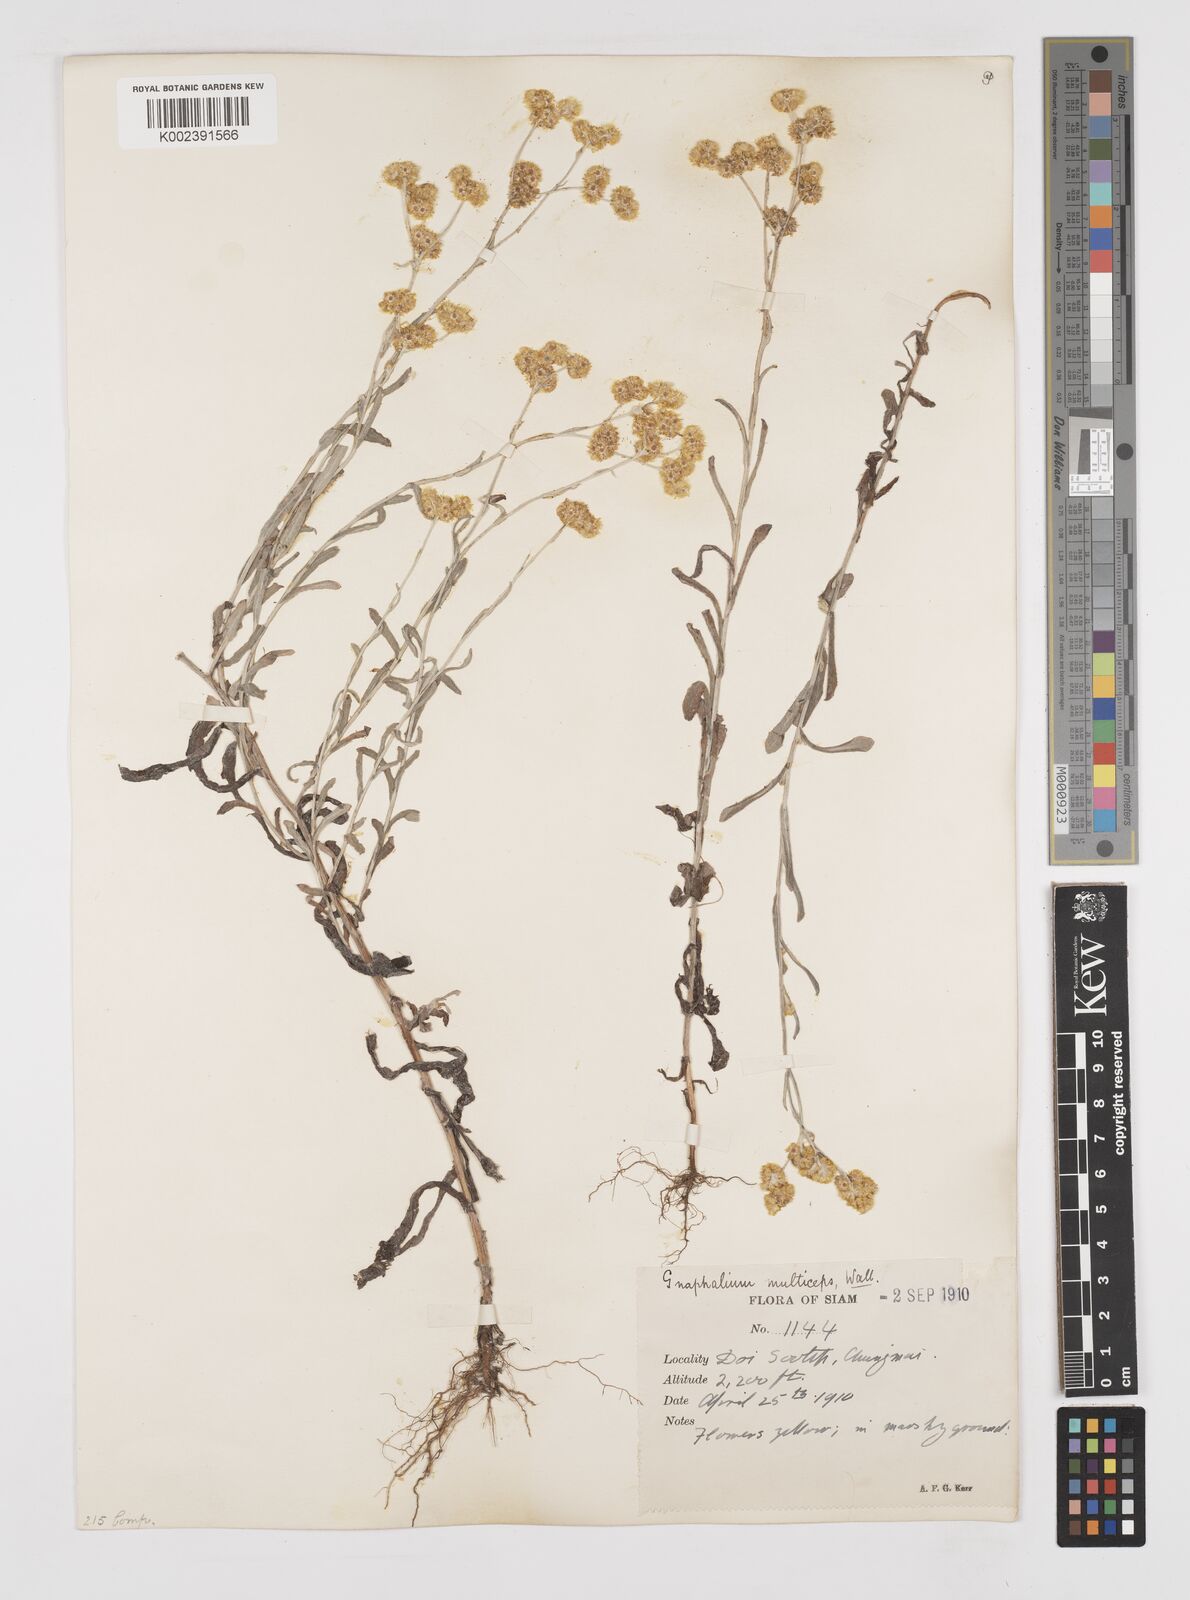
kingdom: Plantae
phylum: Tracheophyta
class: Magnoliopsida
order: Asterales
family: Asteraceae
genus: Pseudognaphalium
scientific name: Pseudognaphalium affine
